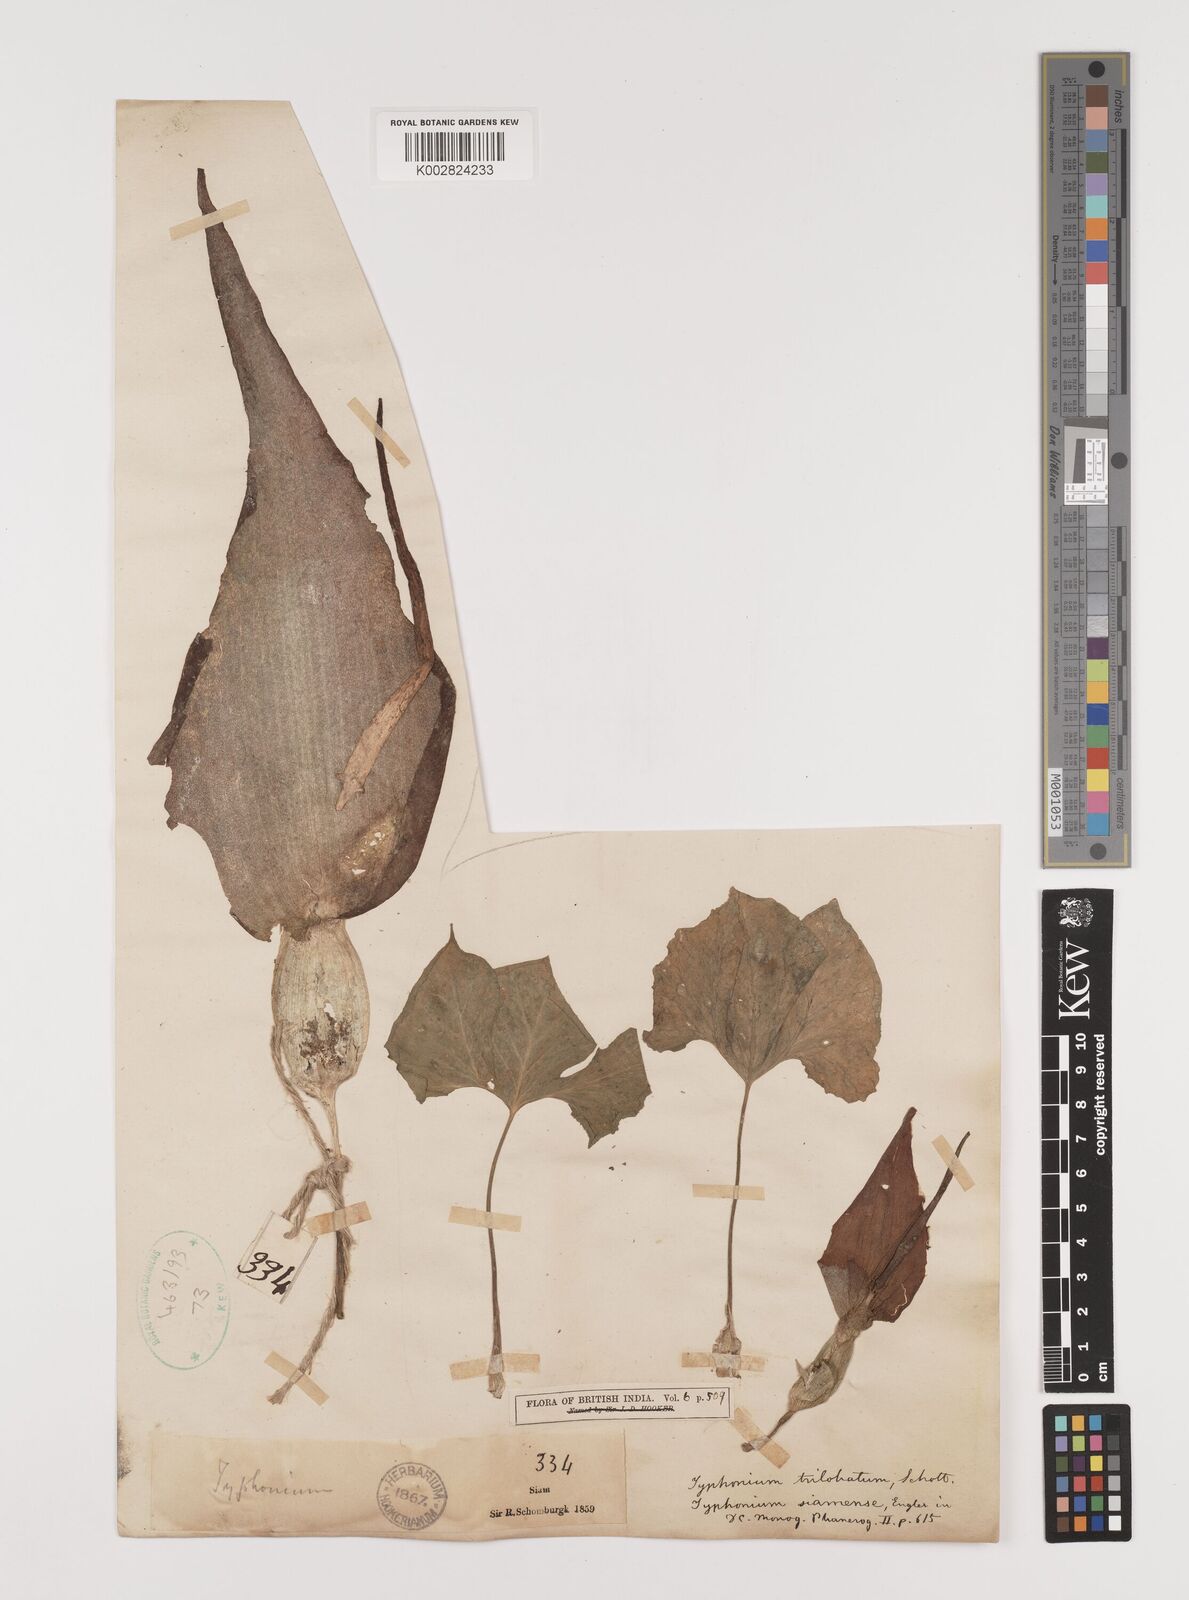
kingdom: Plantae
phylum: Tracheophyta
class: Liliopsida
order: Alismatales
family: Araceae
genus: Typhonium
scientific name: Typhonium trilobatum
